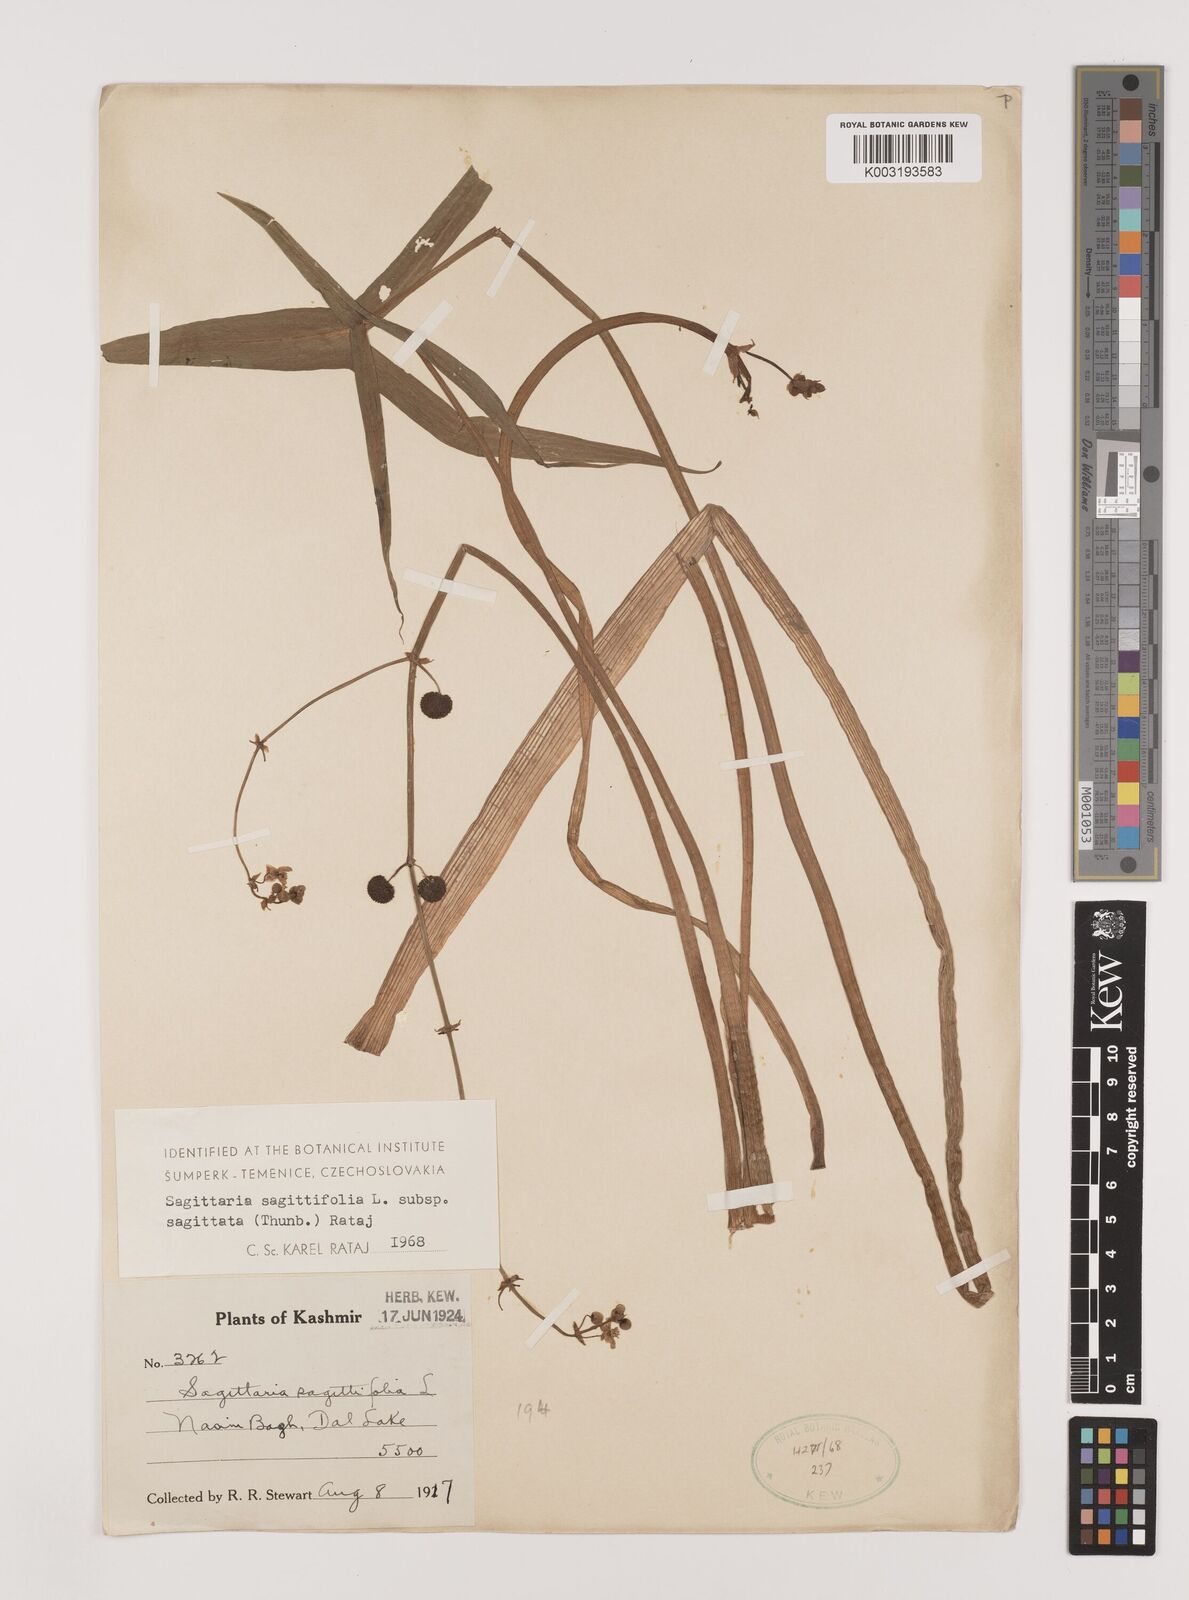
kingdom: Plantae
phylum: Tracheophyta
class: Liliopsida
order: Alismatales
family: Alismataceae
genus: Sagittaria
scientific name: Sagittaria sagittifolia
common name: Arrowhead
